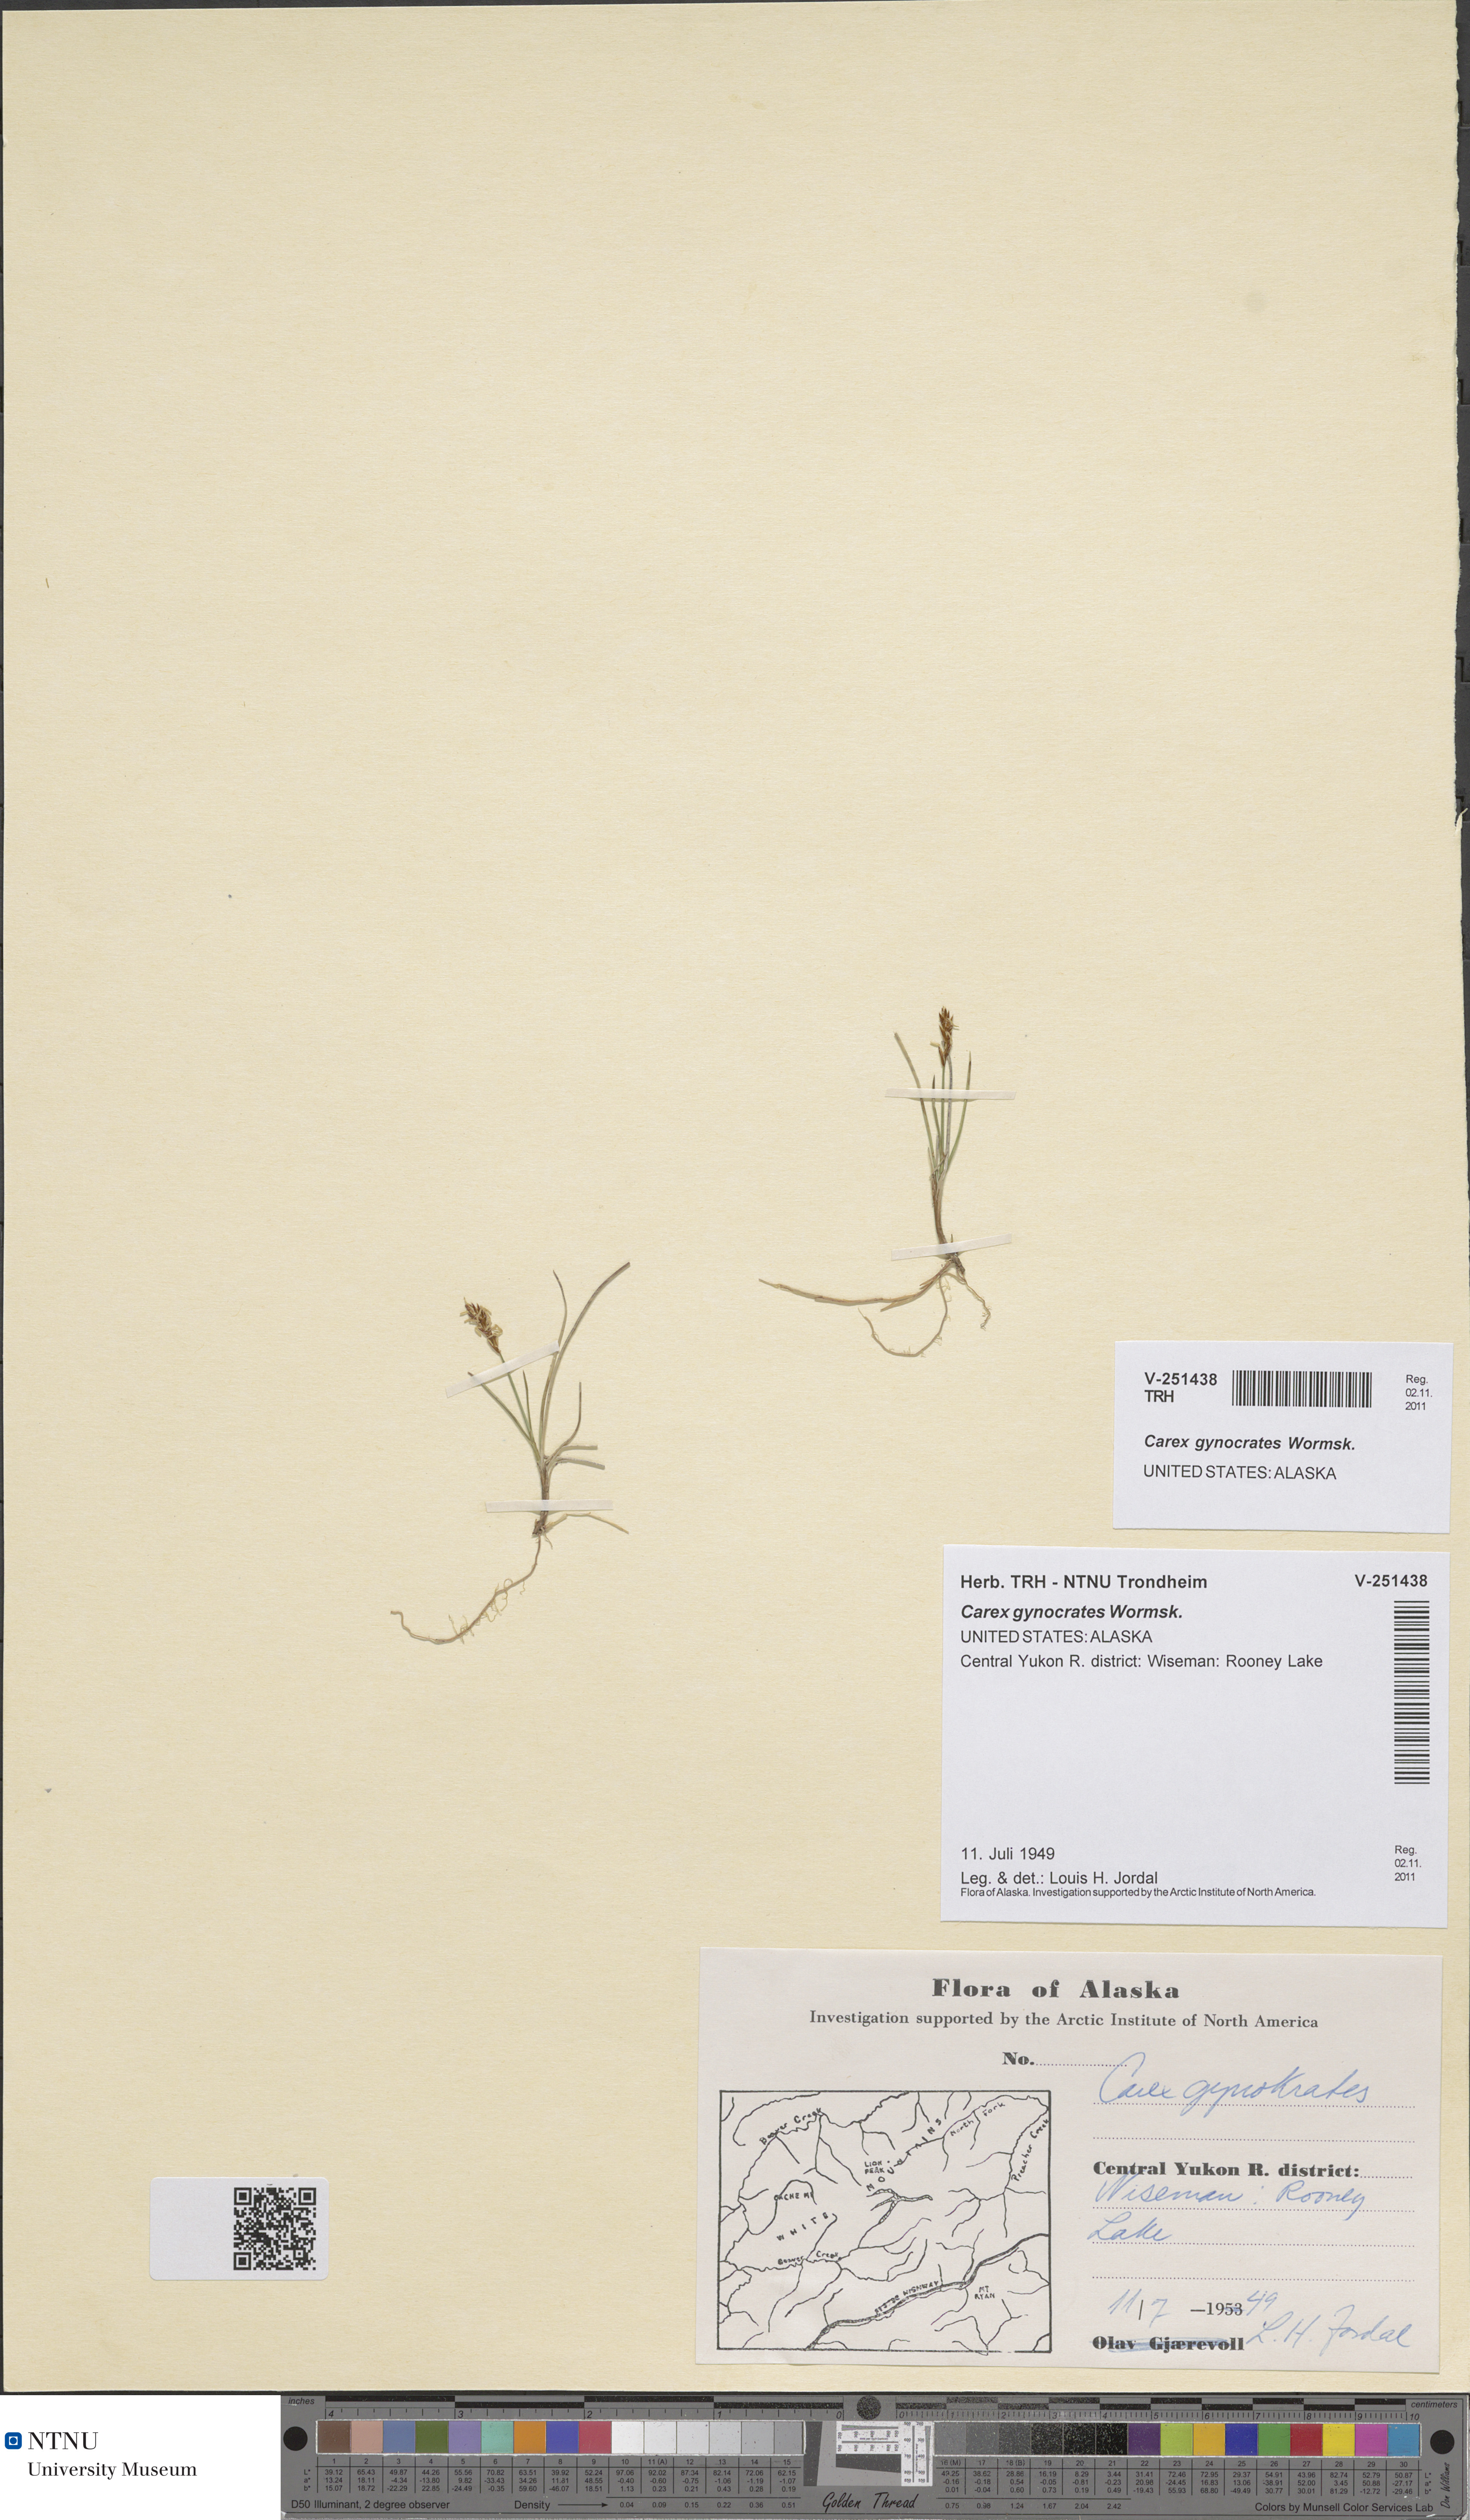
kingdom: Plantae
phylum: Tracheophyta
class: Liliopsida
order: Poales
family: Cyperaceae
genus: Carex
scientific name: Carex gynocrates
